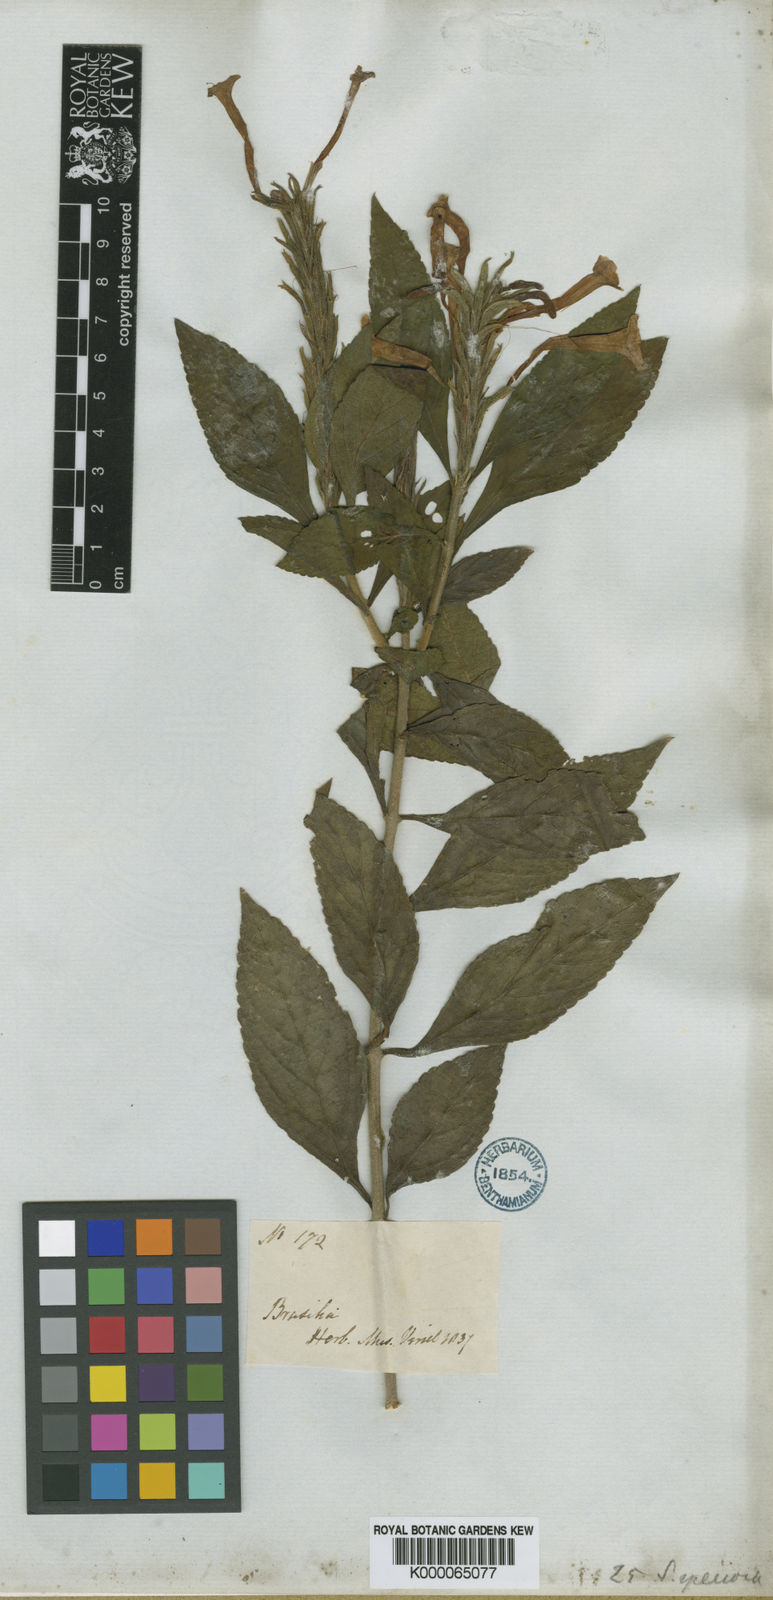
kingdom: Plantae
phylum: Tracheophyta
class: Magnoliopsida
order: Lamiales
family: Verbenaceae
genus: Stachytarpheta
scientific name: Stachytarpheta
